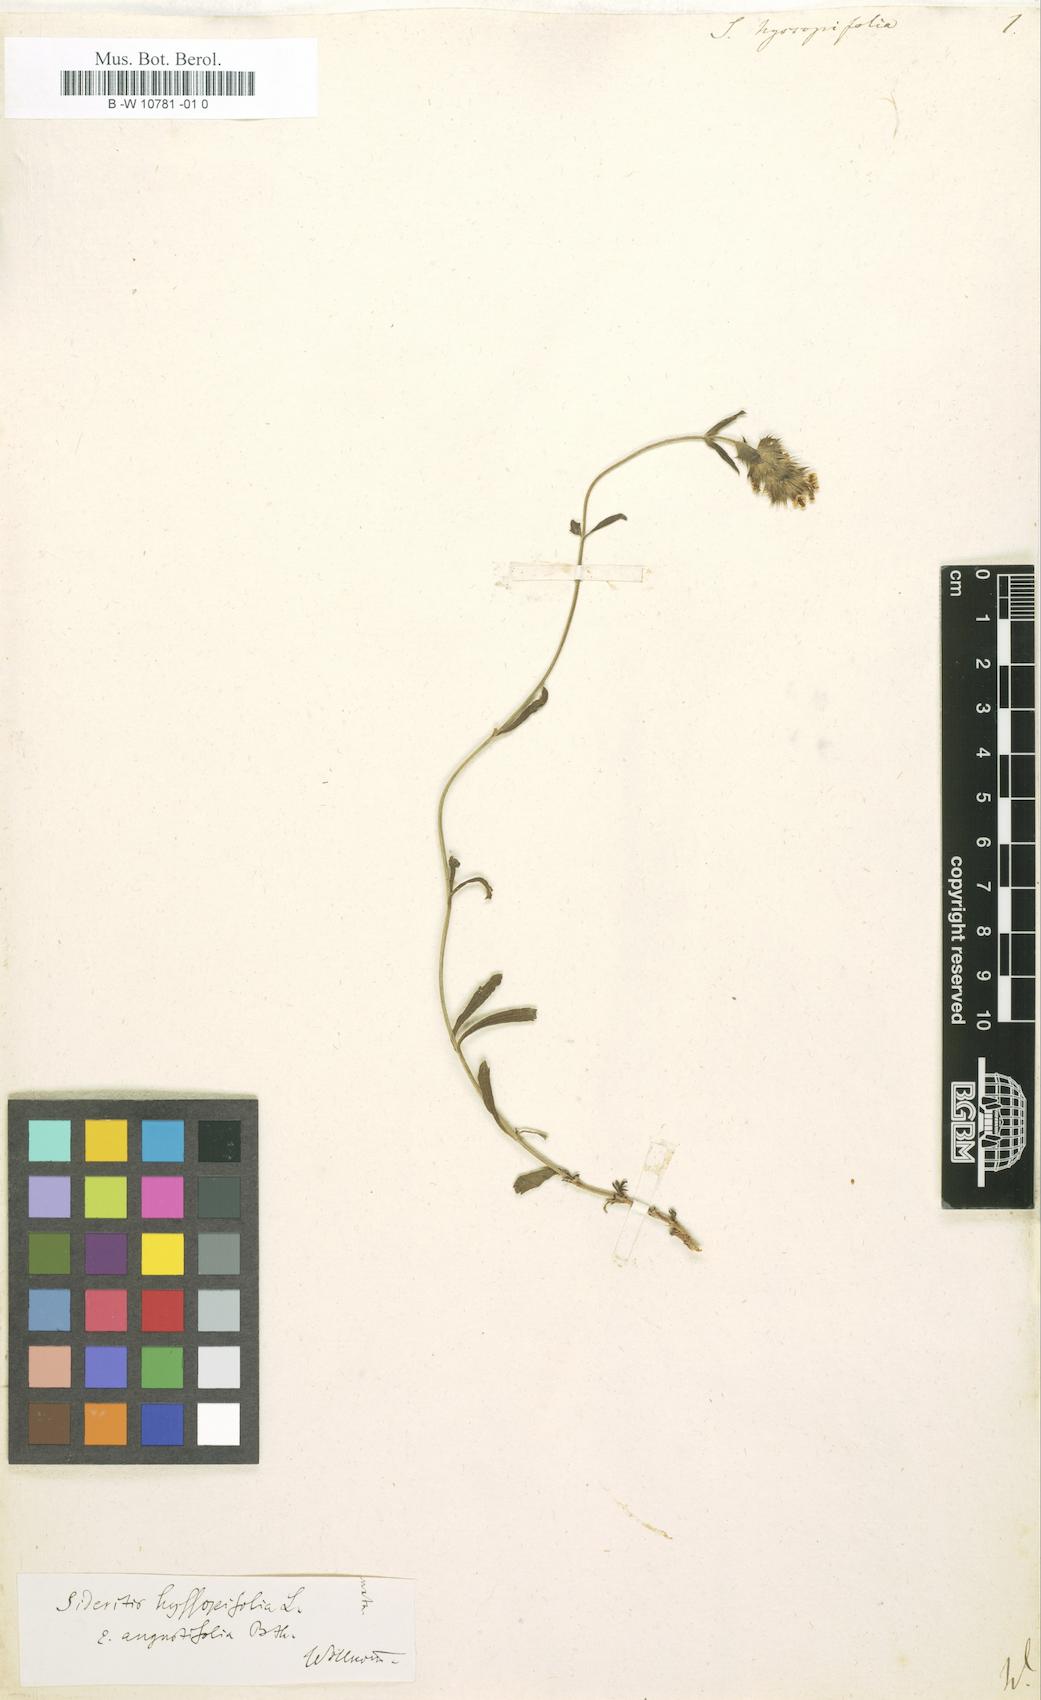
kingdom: Plantae
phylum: Tracheophyta
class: Magnoliopsida
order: Lamiales
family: Lamiaceae
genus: Sideritis
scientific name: Sideritis hyssopifolia
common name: Mountain tea
